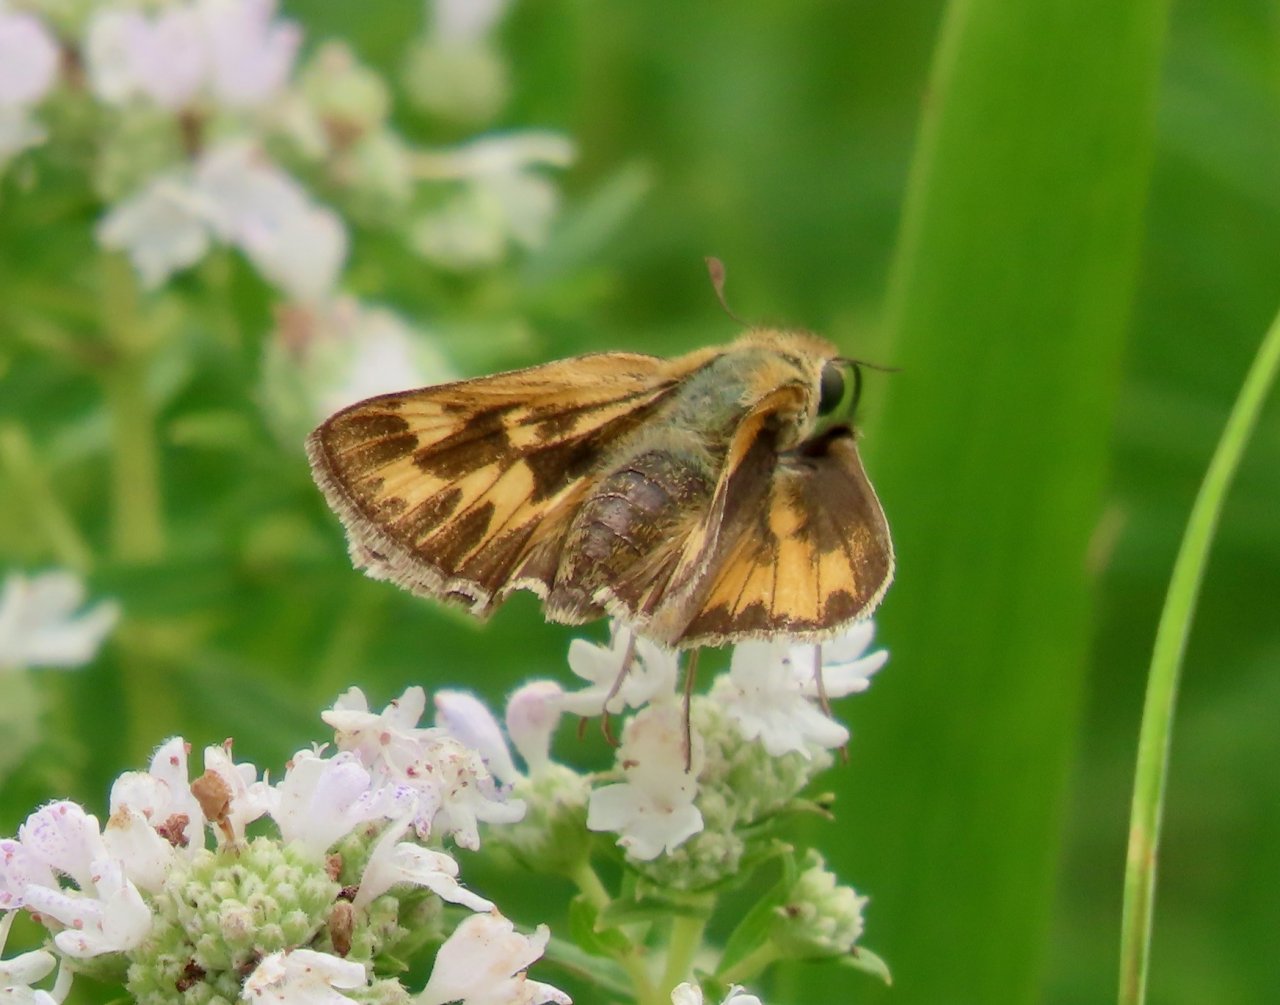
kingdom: Animalia
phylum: Arthropoda
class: Insecta
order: Lepidoptera
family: Hesperiidae
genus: Hylephila
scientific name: Hylephila phyleus
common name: Fiery Skipper
